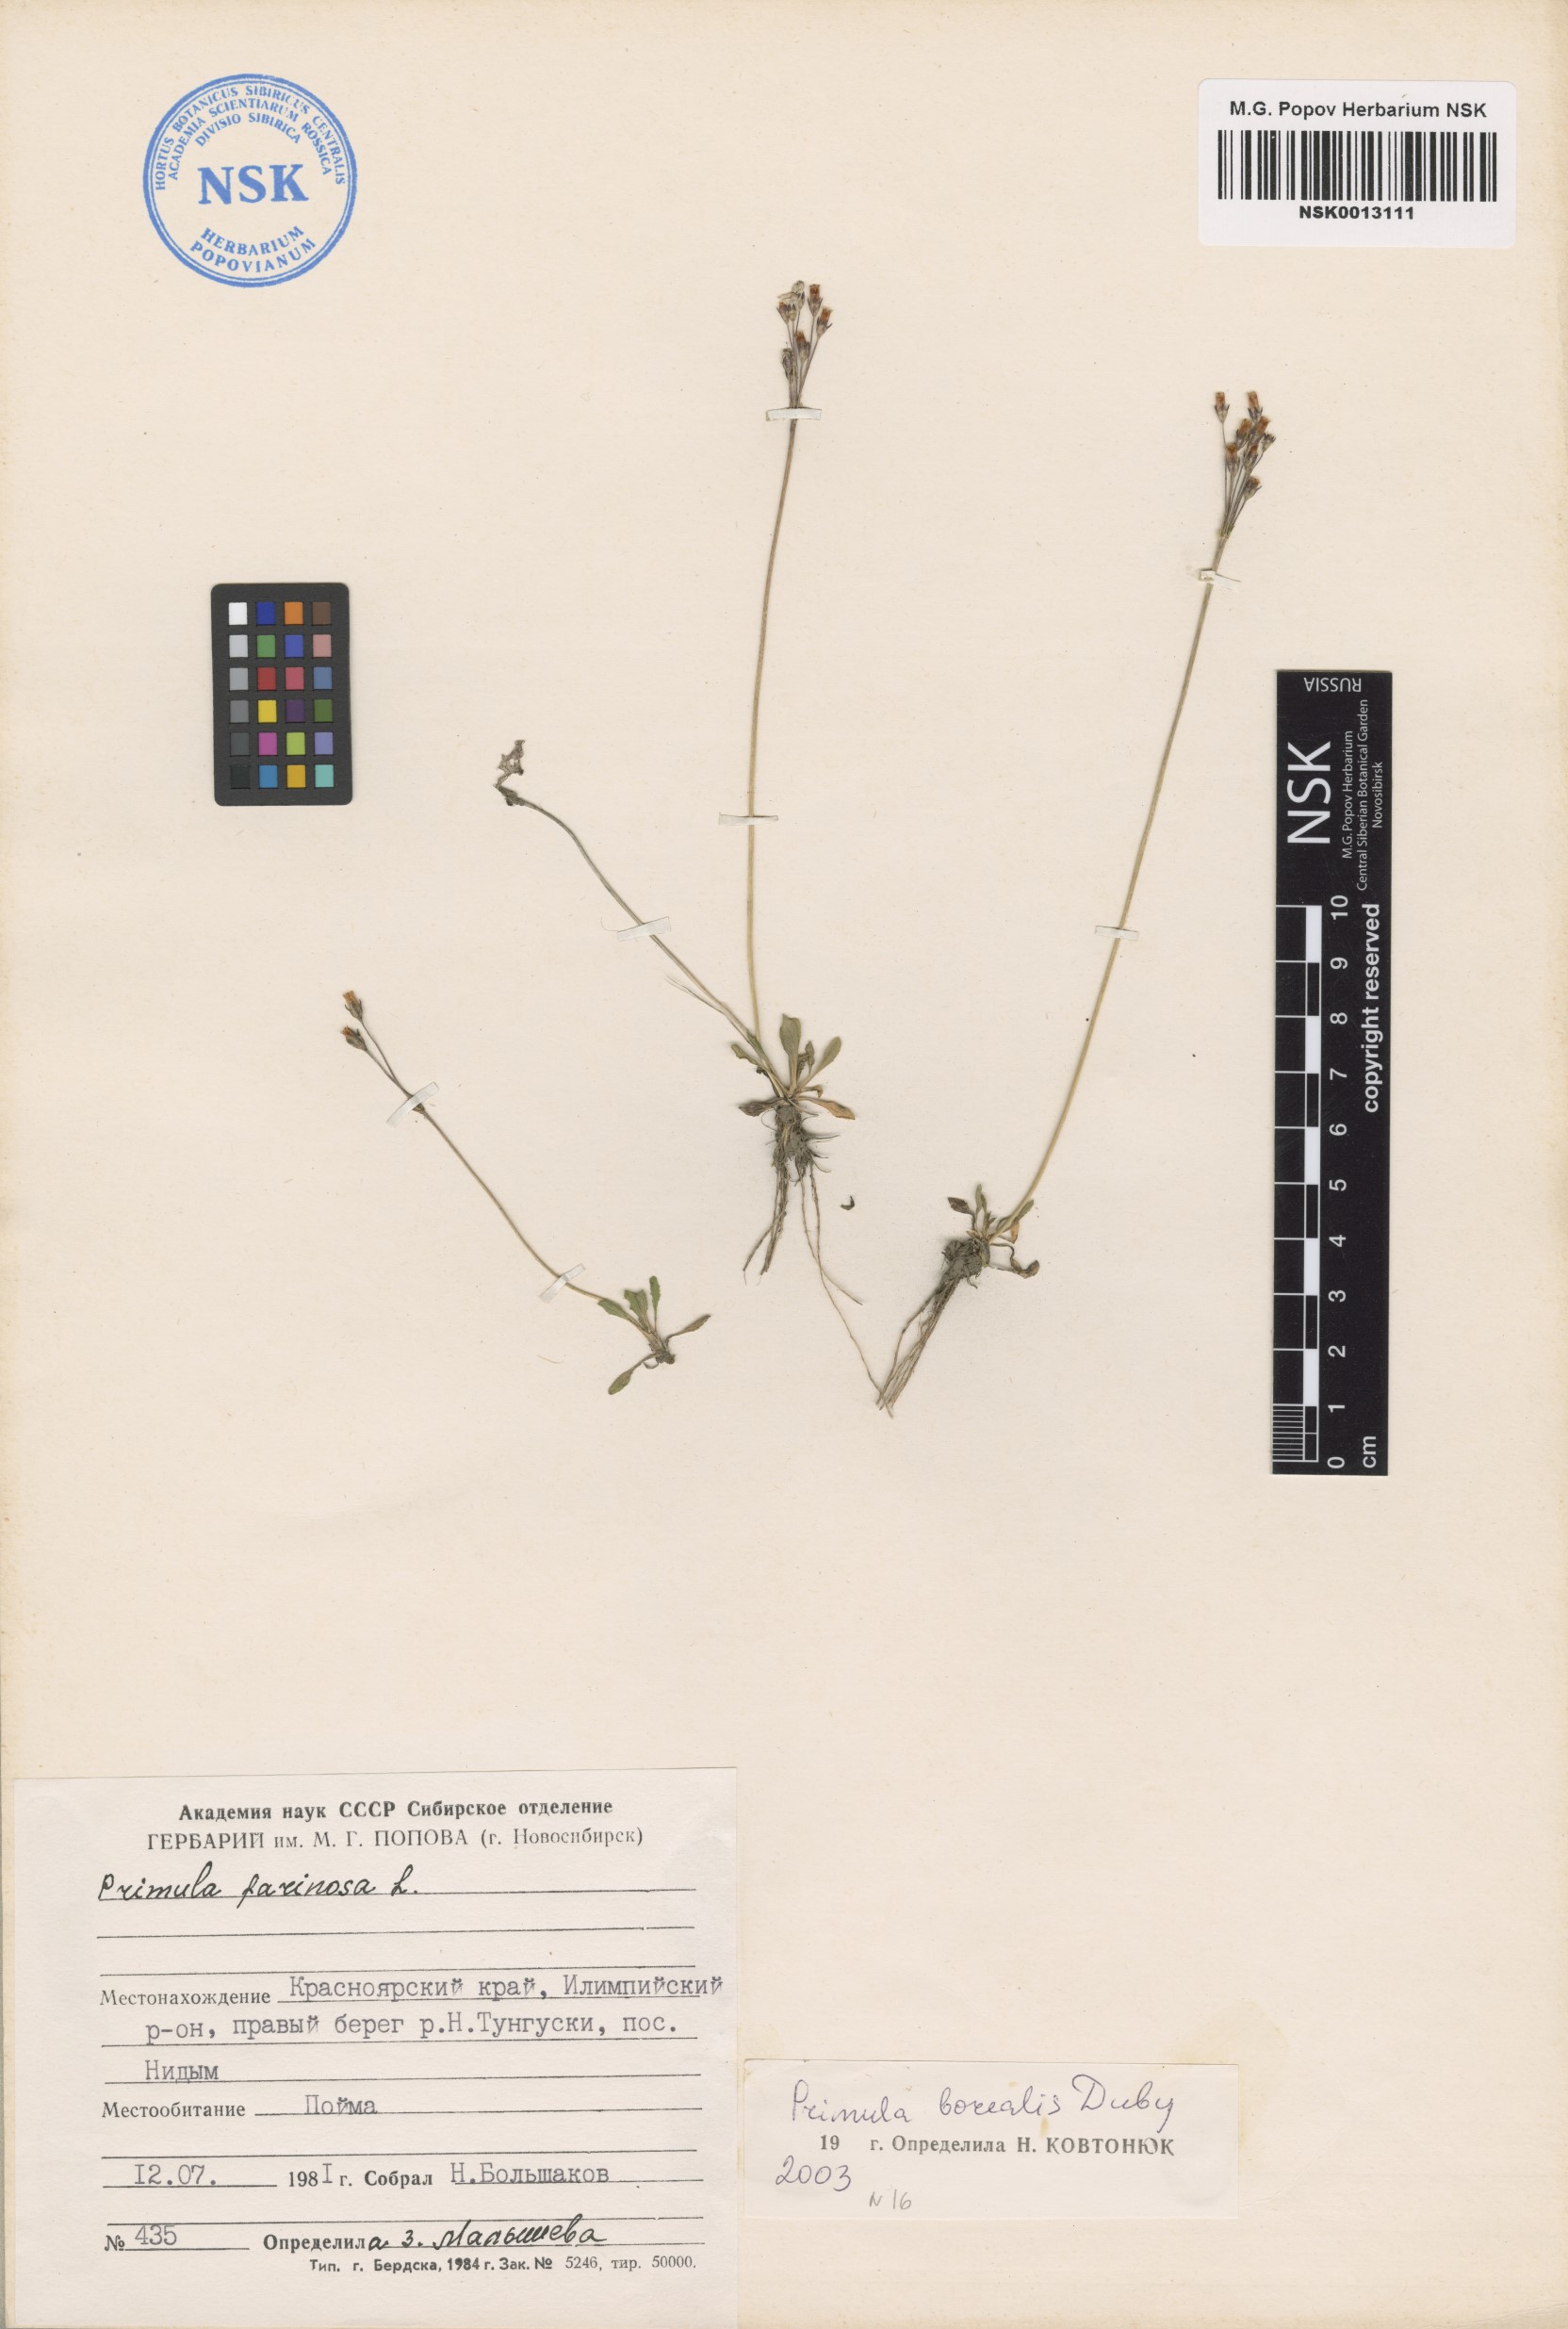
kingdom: Plantae
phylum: Tracheophyta
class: Magnoliopsida
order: Ericales
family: Primulaceae
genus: Primula
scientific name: Primula borealis
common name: Northern primrose
